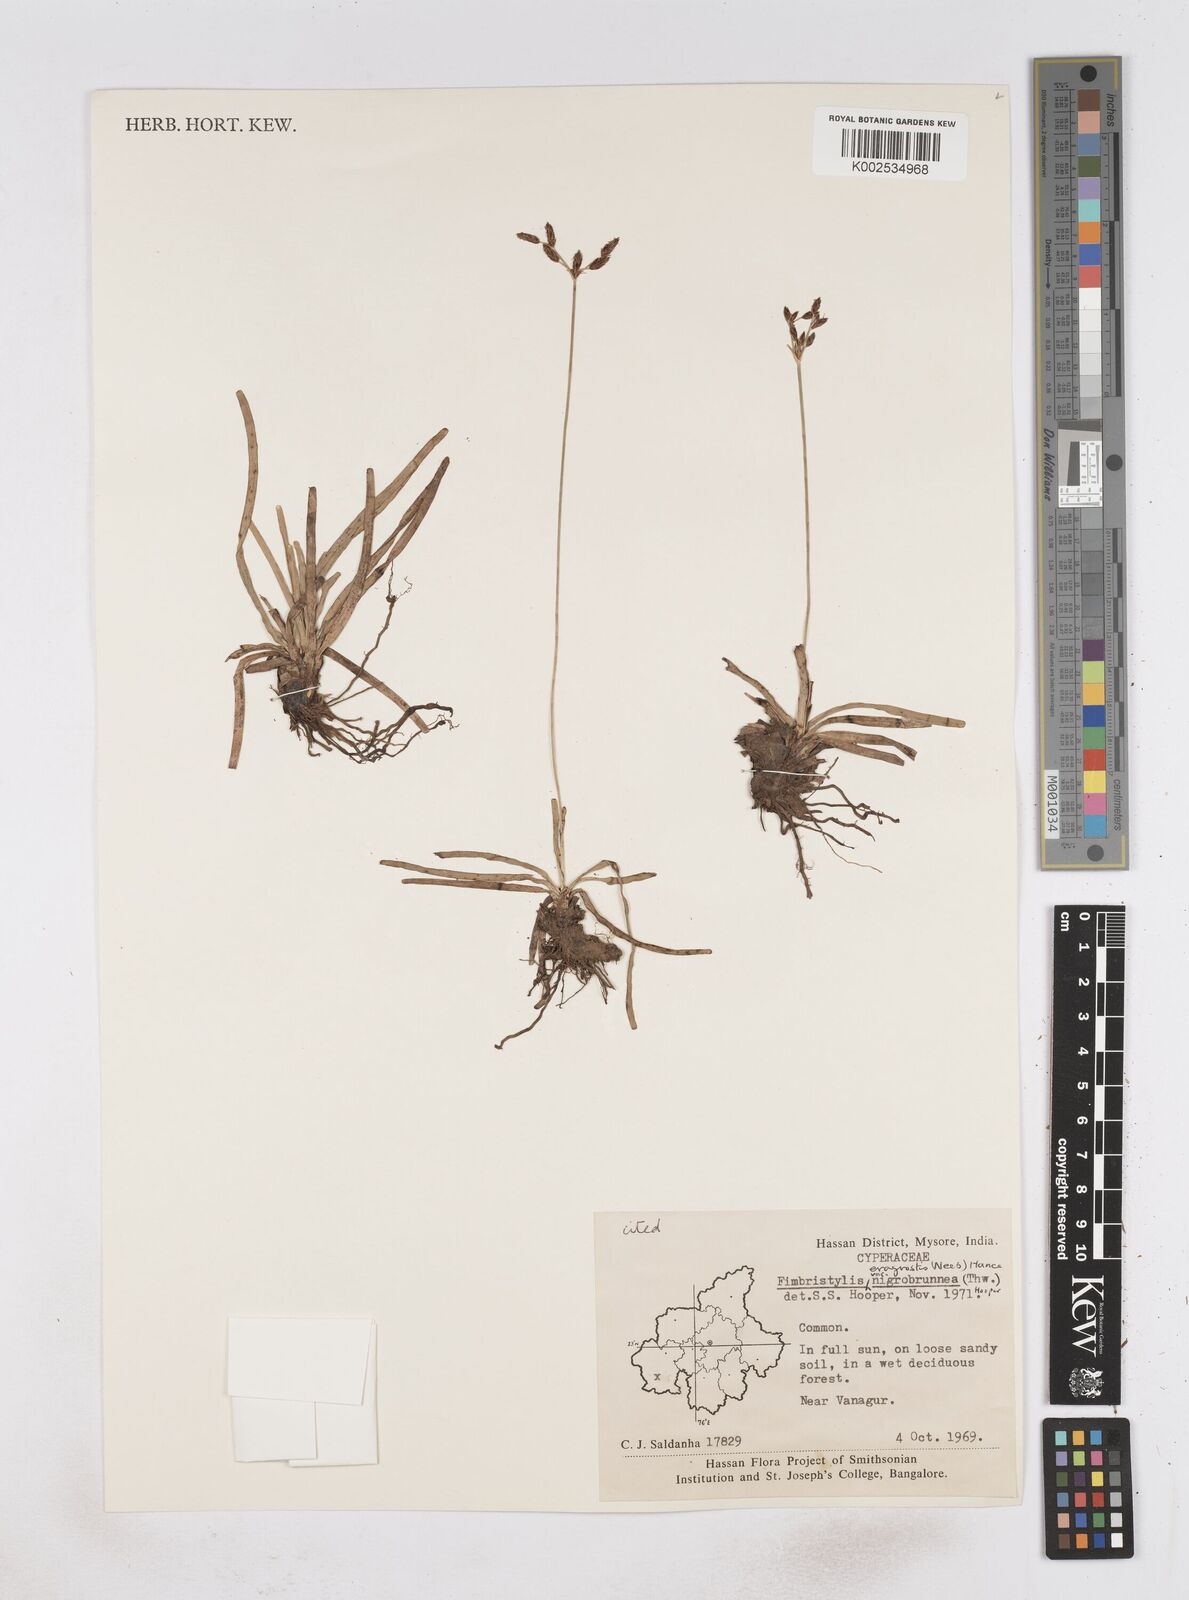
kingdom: Plantae
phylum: Tracheophyta
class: Liliopsida
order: Poales
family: Cyperaceae
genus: Fimbristylis
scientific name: Fimbristylis nigrobrunnea
